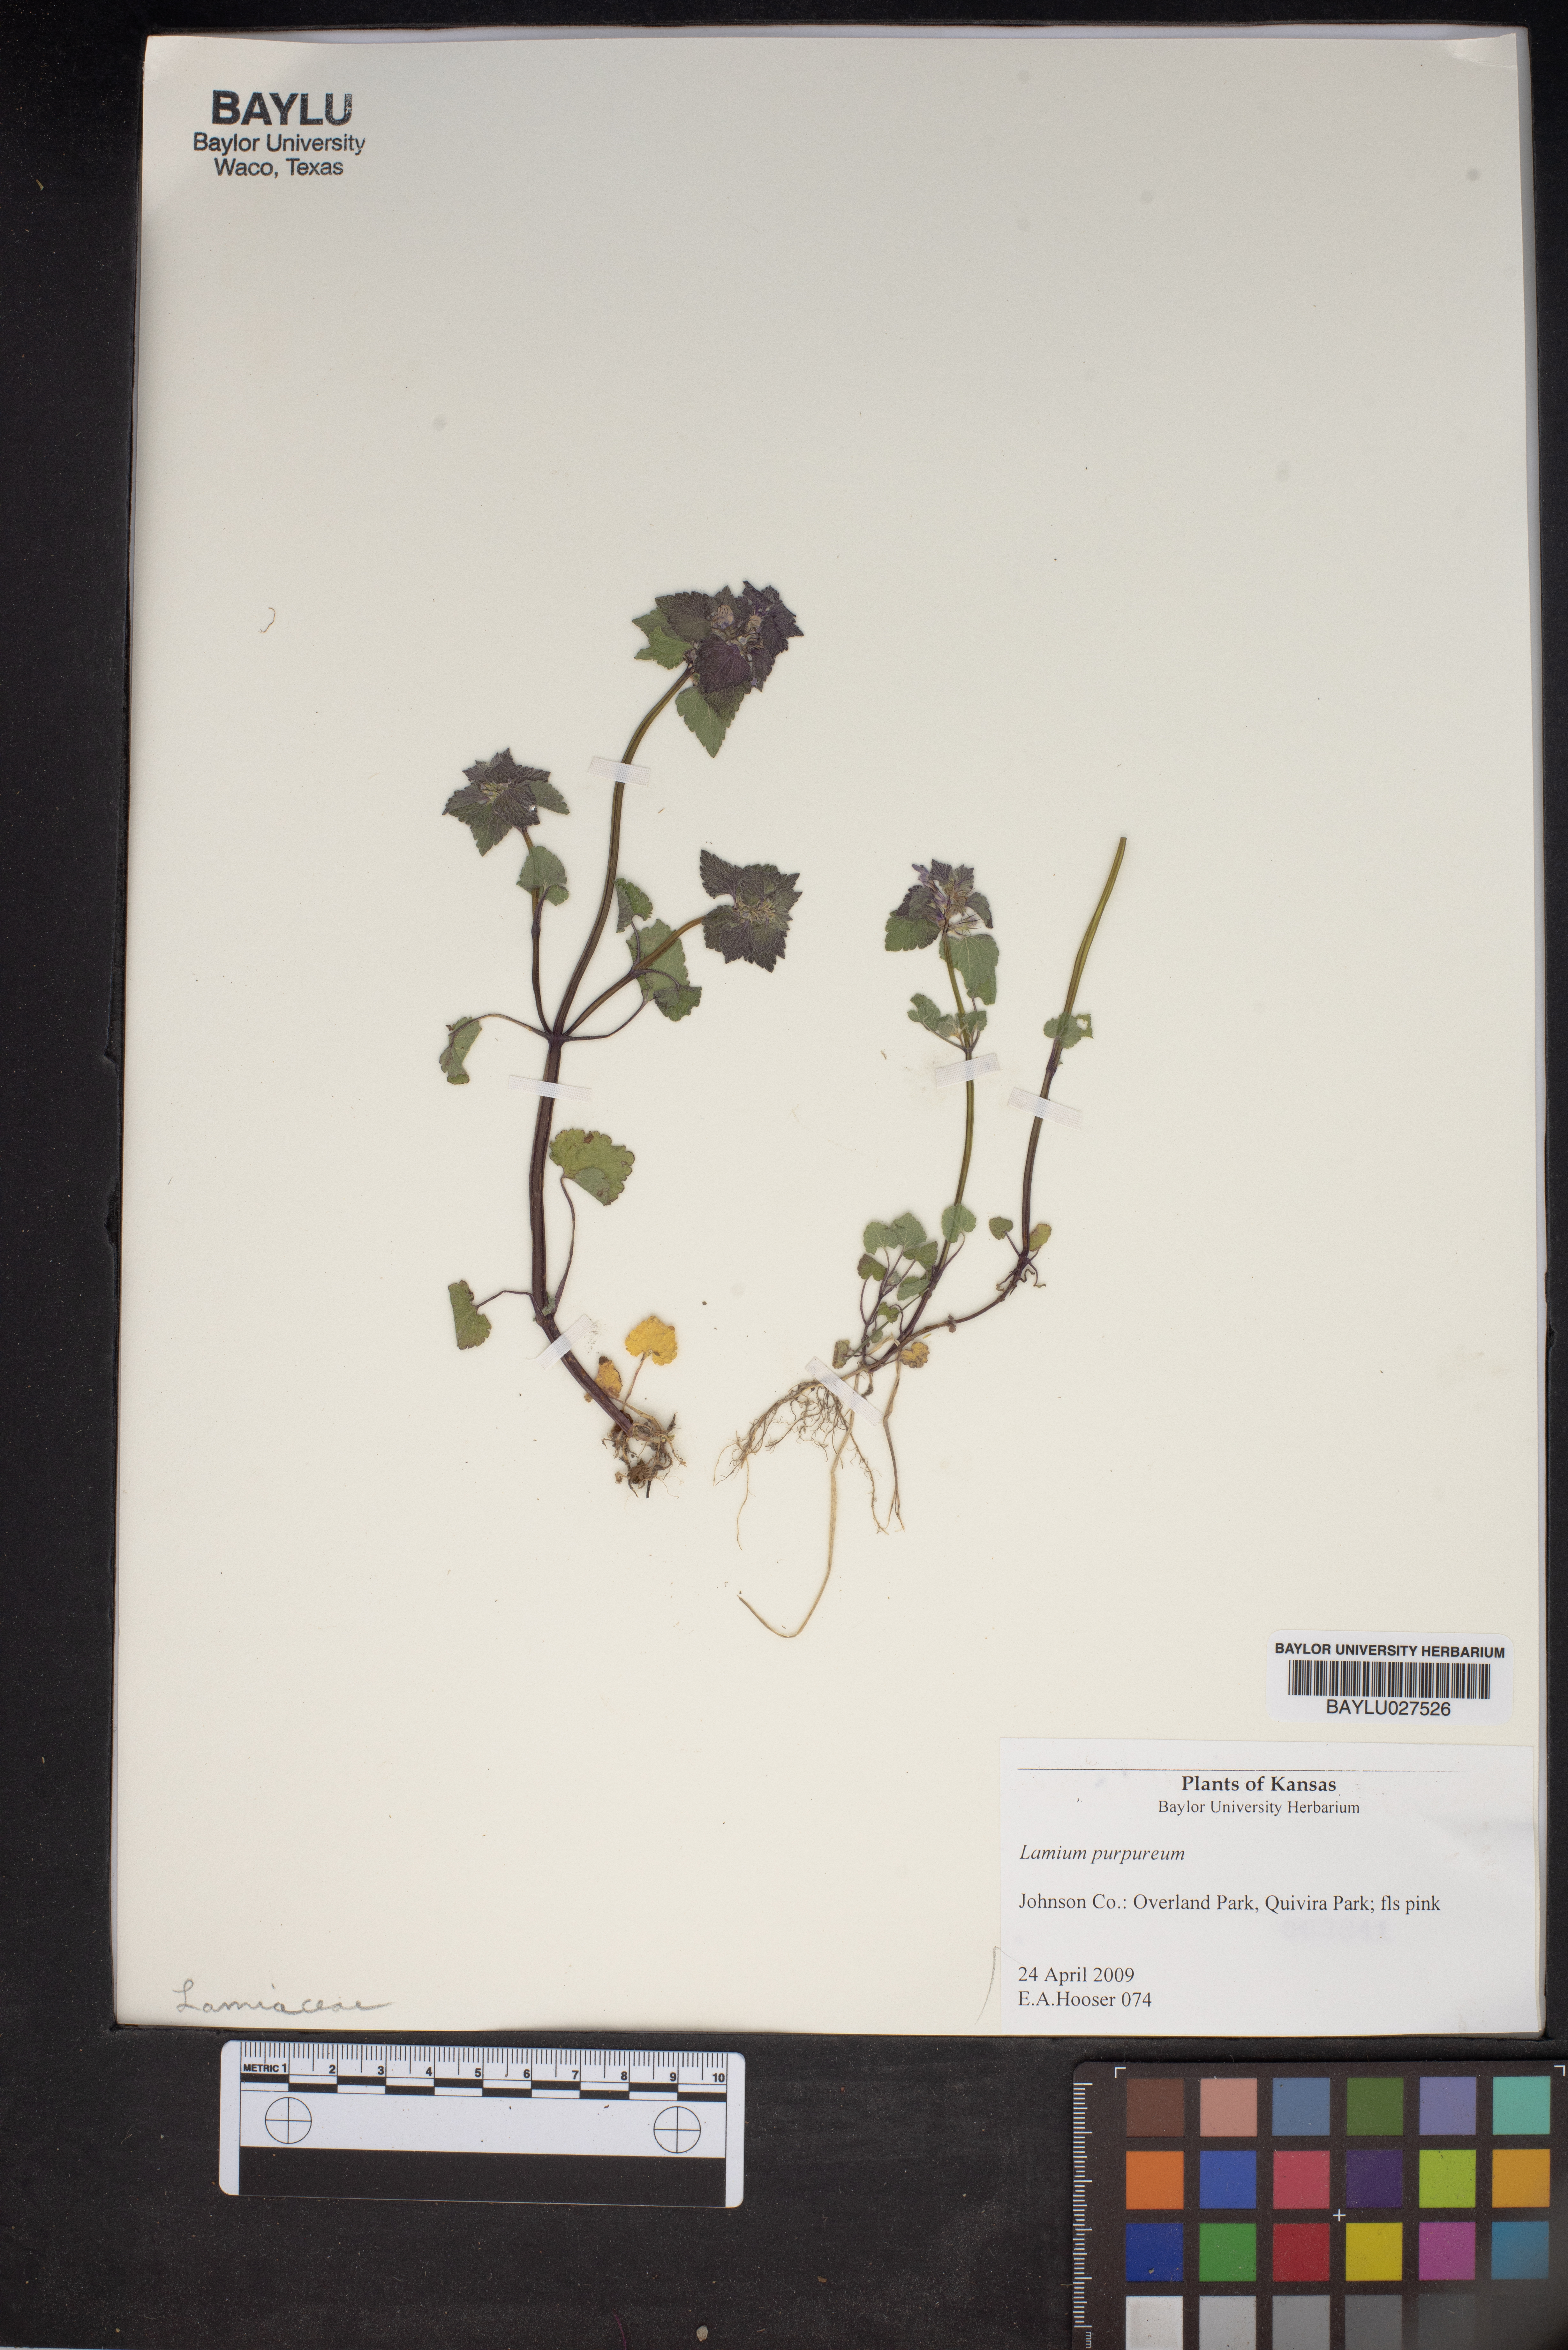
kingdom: Plantae
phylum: Tracheophyta
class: Magnoliopsida
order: Lamiales
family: Lamiaceae
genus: Lamium
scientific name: Lamium purpureum
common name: Red dead-nettle
